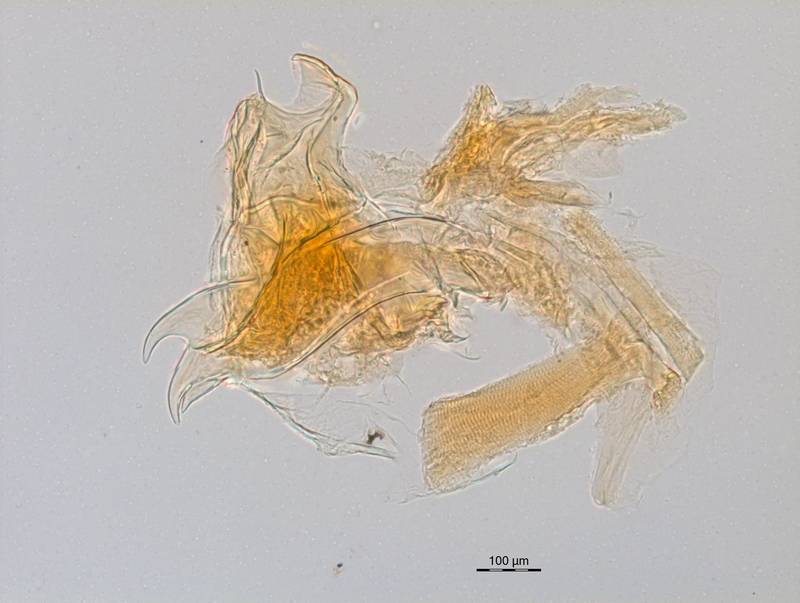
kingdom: Animalia
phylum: Arthropoda
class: Diplopoda
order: Chordeumatida
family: Craspedosomatidae
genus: Ochogona
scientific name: Ochogona caroli
